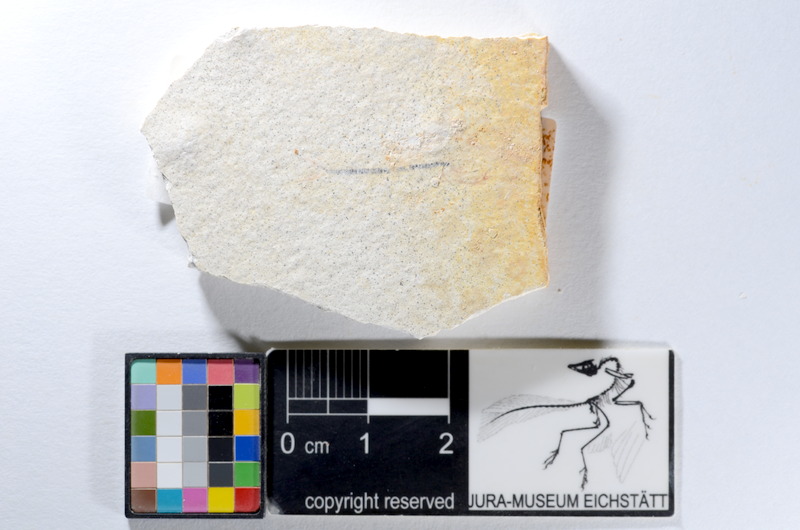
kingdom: Animalia
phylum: Chordata
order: Salmoniformes
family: Orthogonikleithridae
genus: Orthogonikleithrus
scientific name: Orthogonikleithrus hoelli
